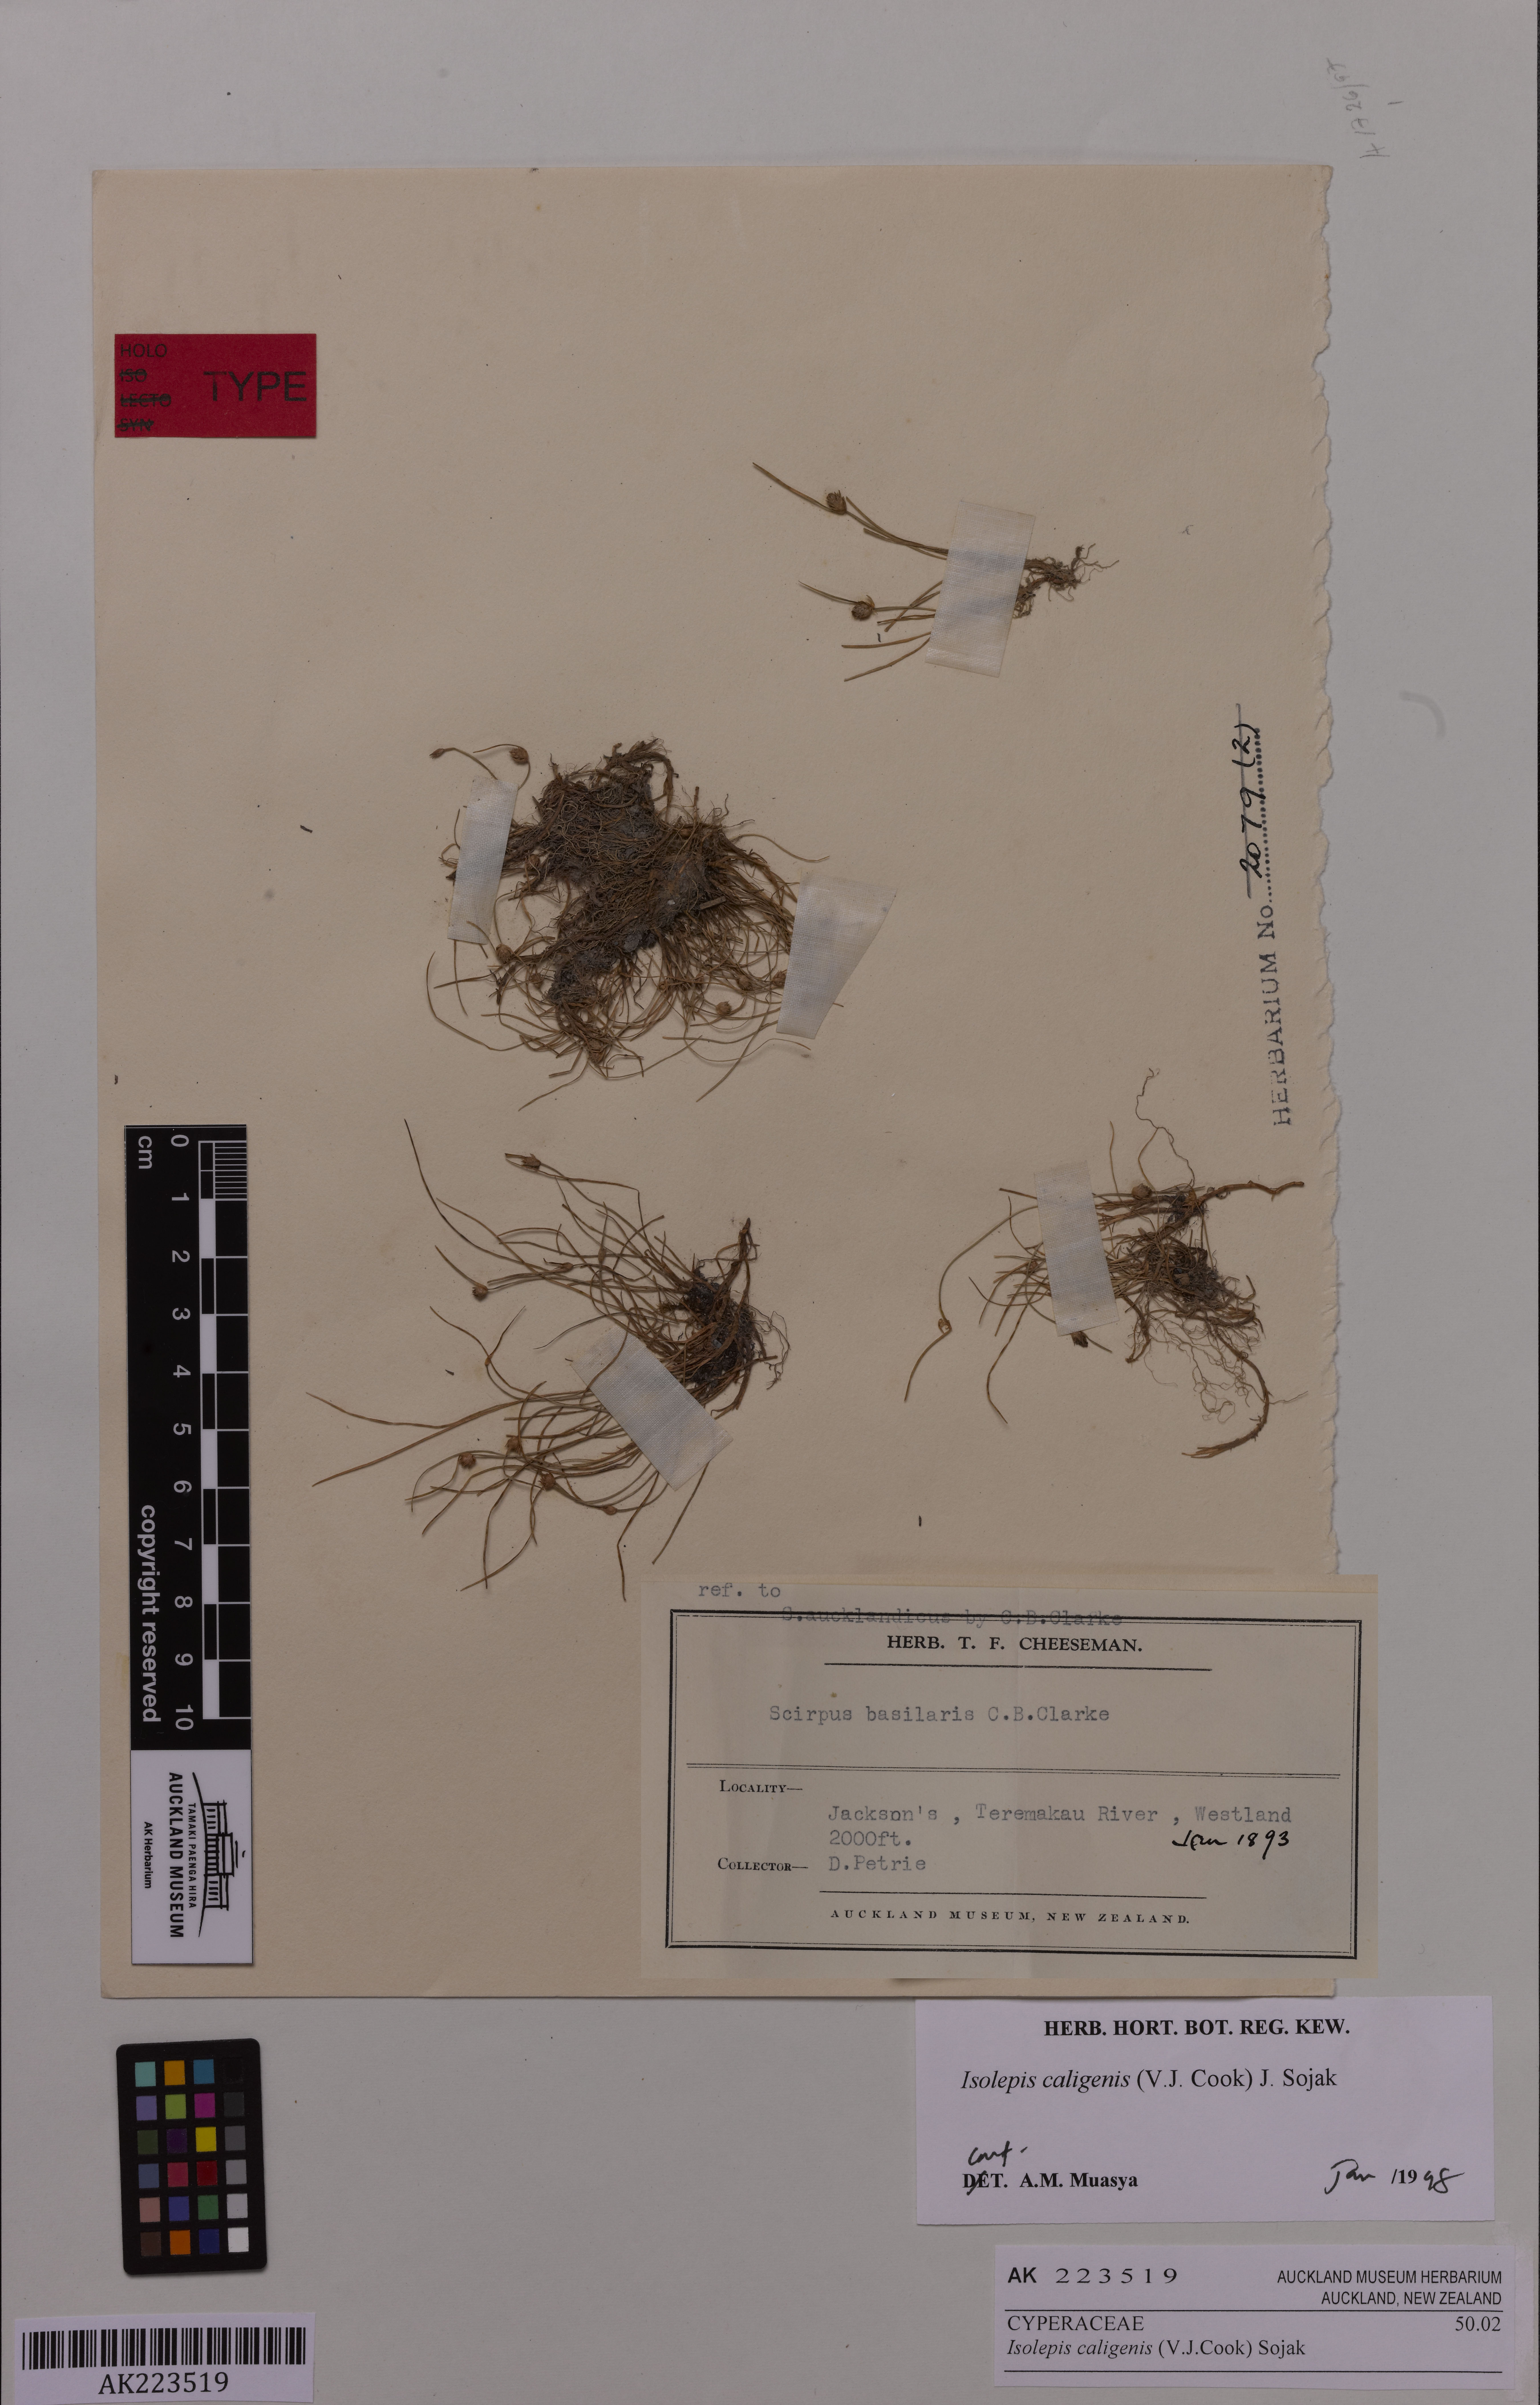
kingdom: Plantae
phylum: Tracheophyta
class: Liliopsida
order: Poales
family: Cyperaceae
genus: Isolepis
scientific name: Isolepis caligenis
